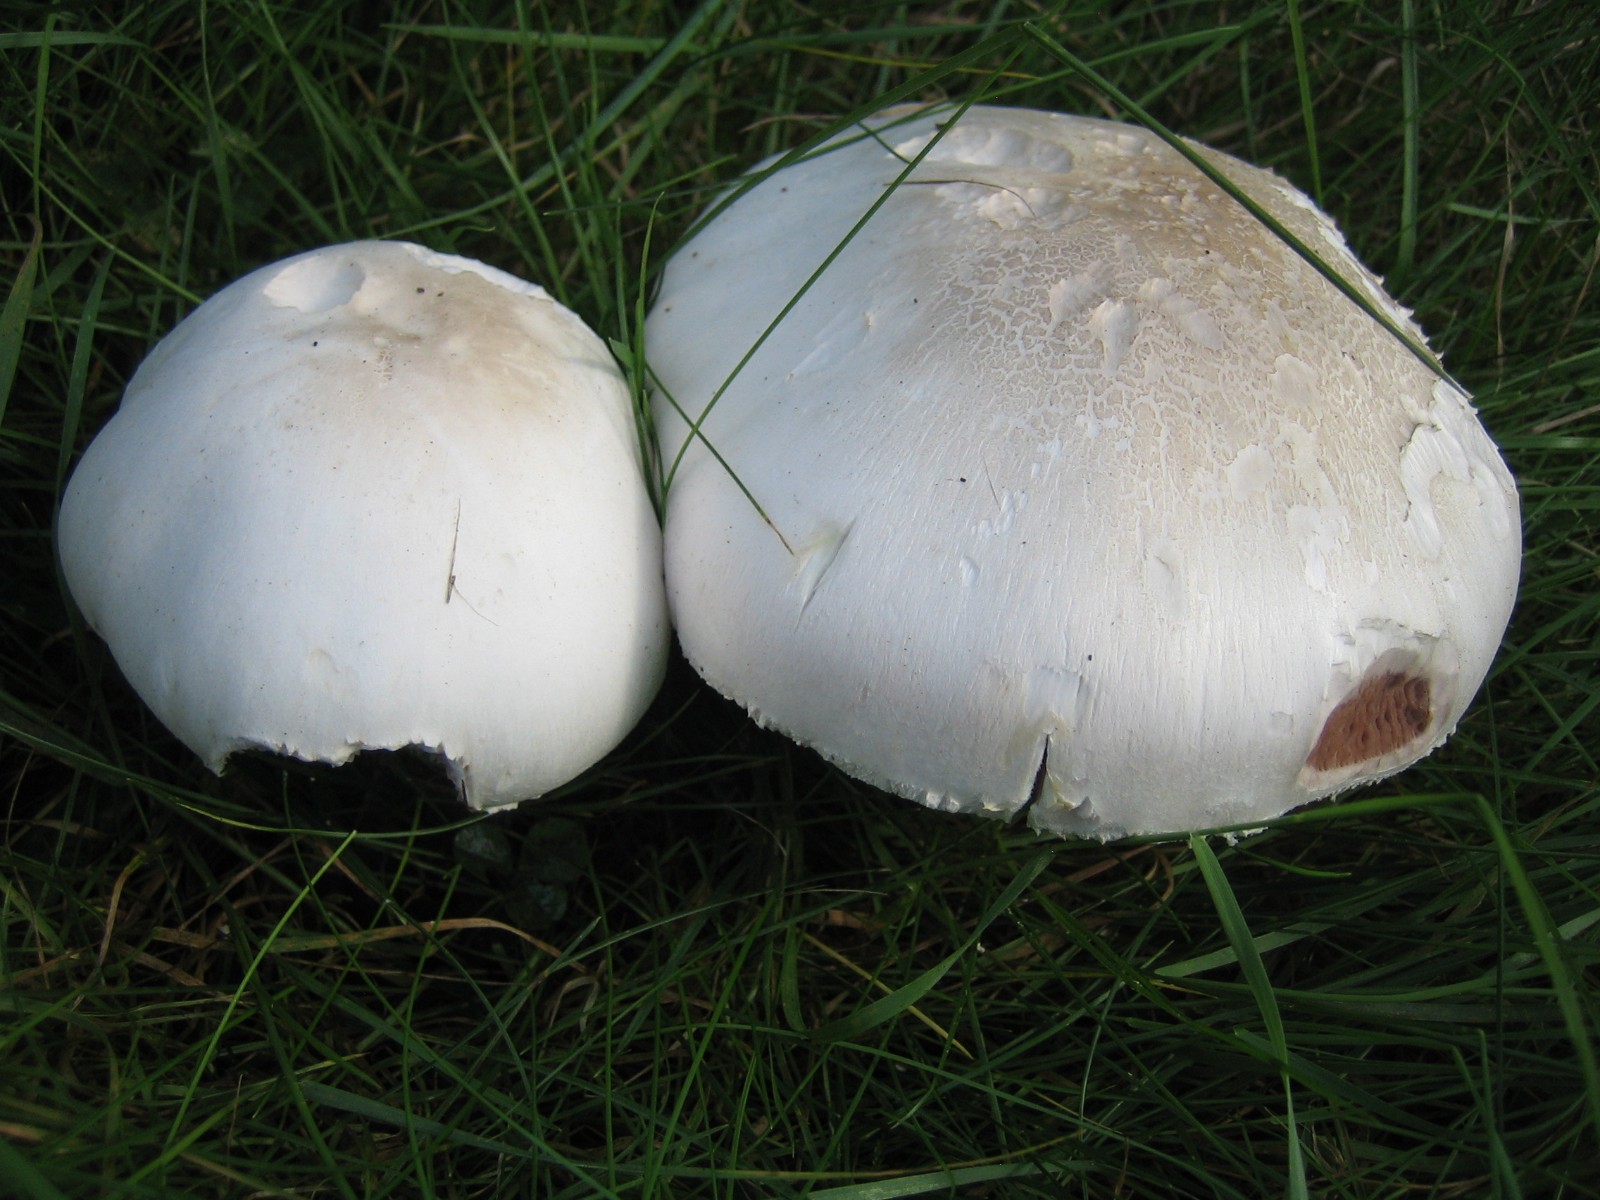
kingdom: Fungi
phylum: Basidiomycota
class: Agaricomycetes
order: Agaricales
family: Agaricaceae
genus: Agaricus
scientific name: Agaricus xanthodermus
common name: karbol-champignon
